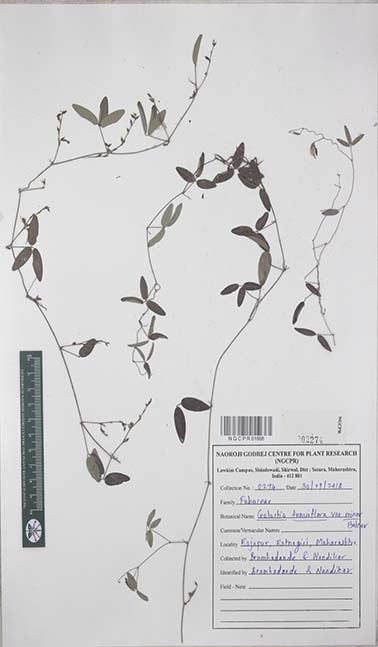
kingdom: Plantae
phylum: Tracheophyta
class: Magnoliopsida
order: Fabales
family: Fabaceae
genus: Galactia
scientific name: Galactia striata
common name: Florida hammock milkpea
